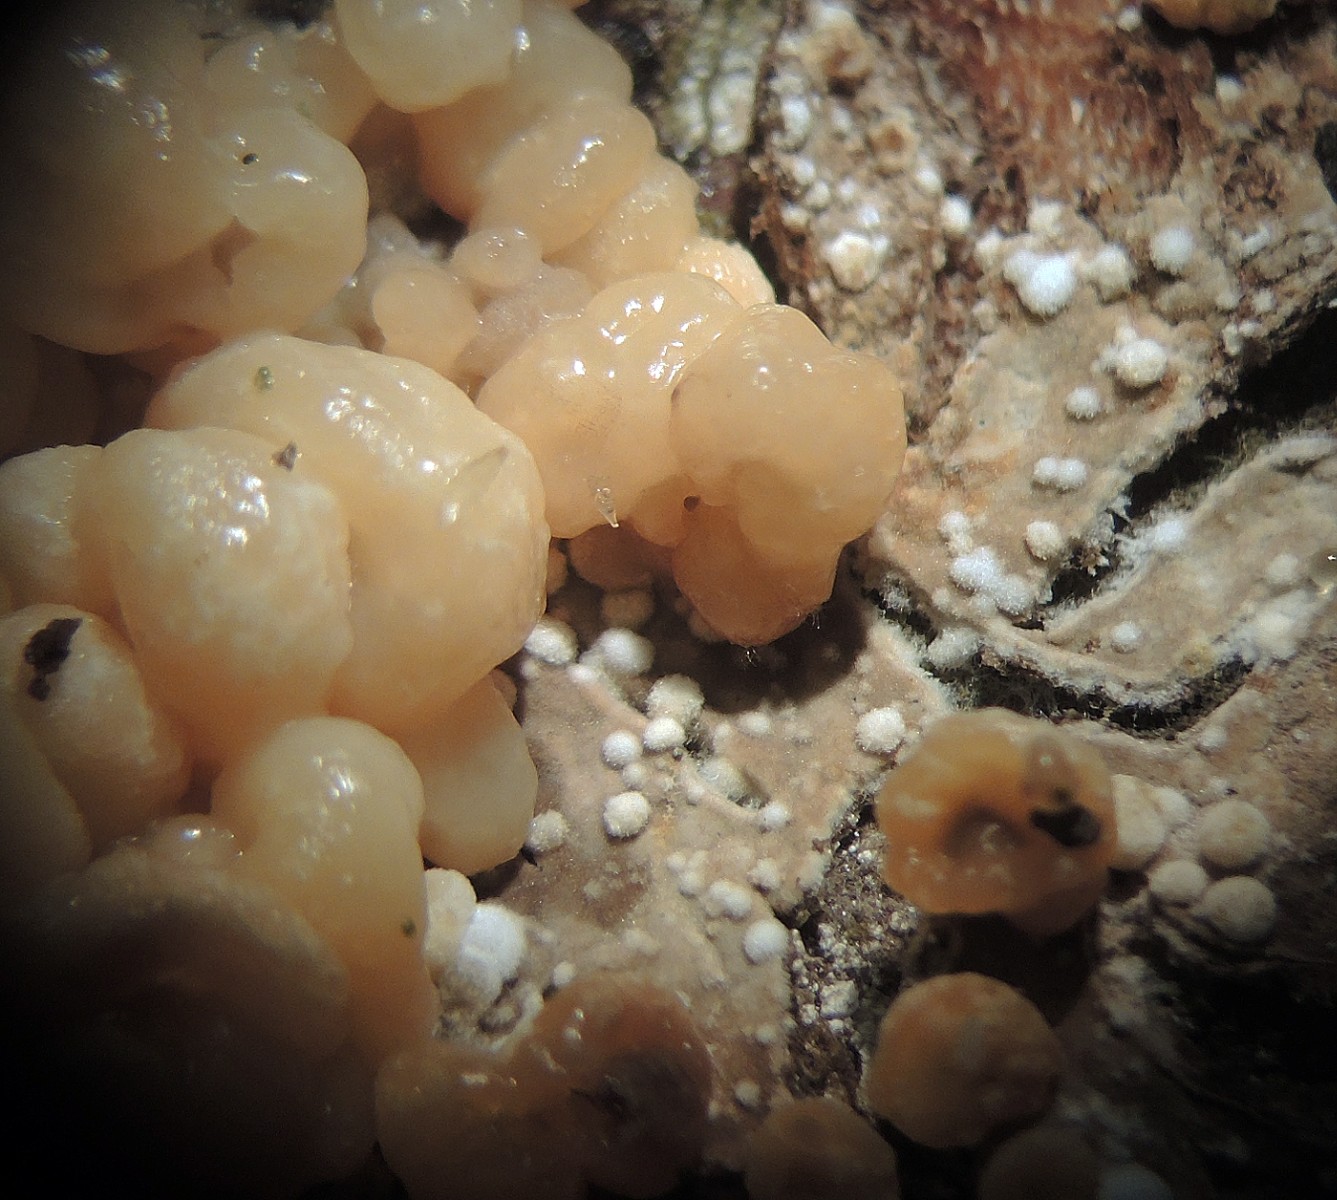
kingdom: Fungi
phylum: Ascomycota
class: Sordariomycetes
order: Xylariales
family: Hypoxylaceae
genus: Nodulisporium
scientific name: Nodulisporium cecidiogenes
